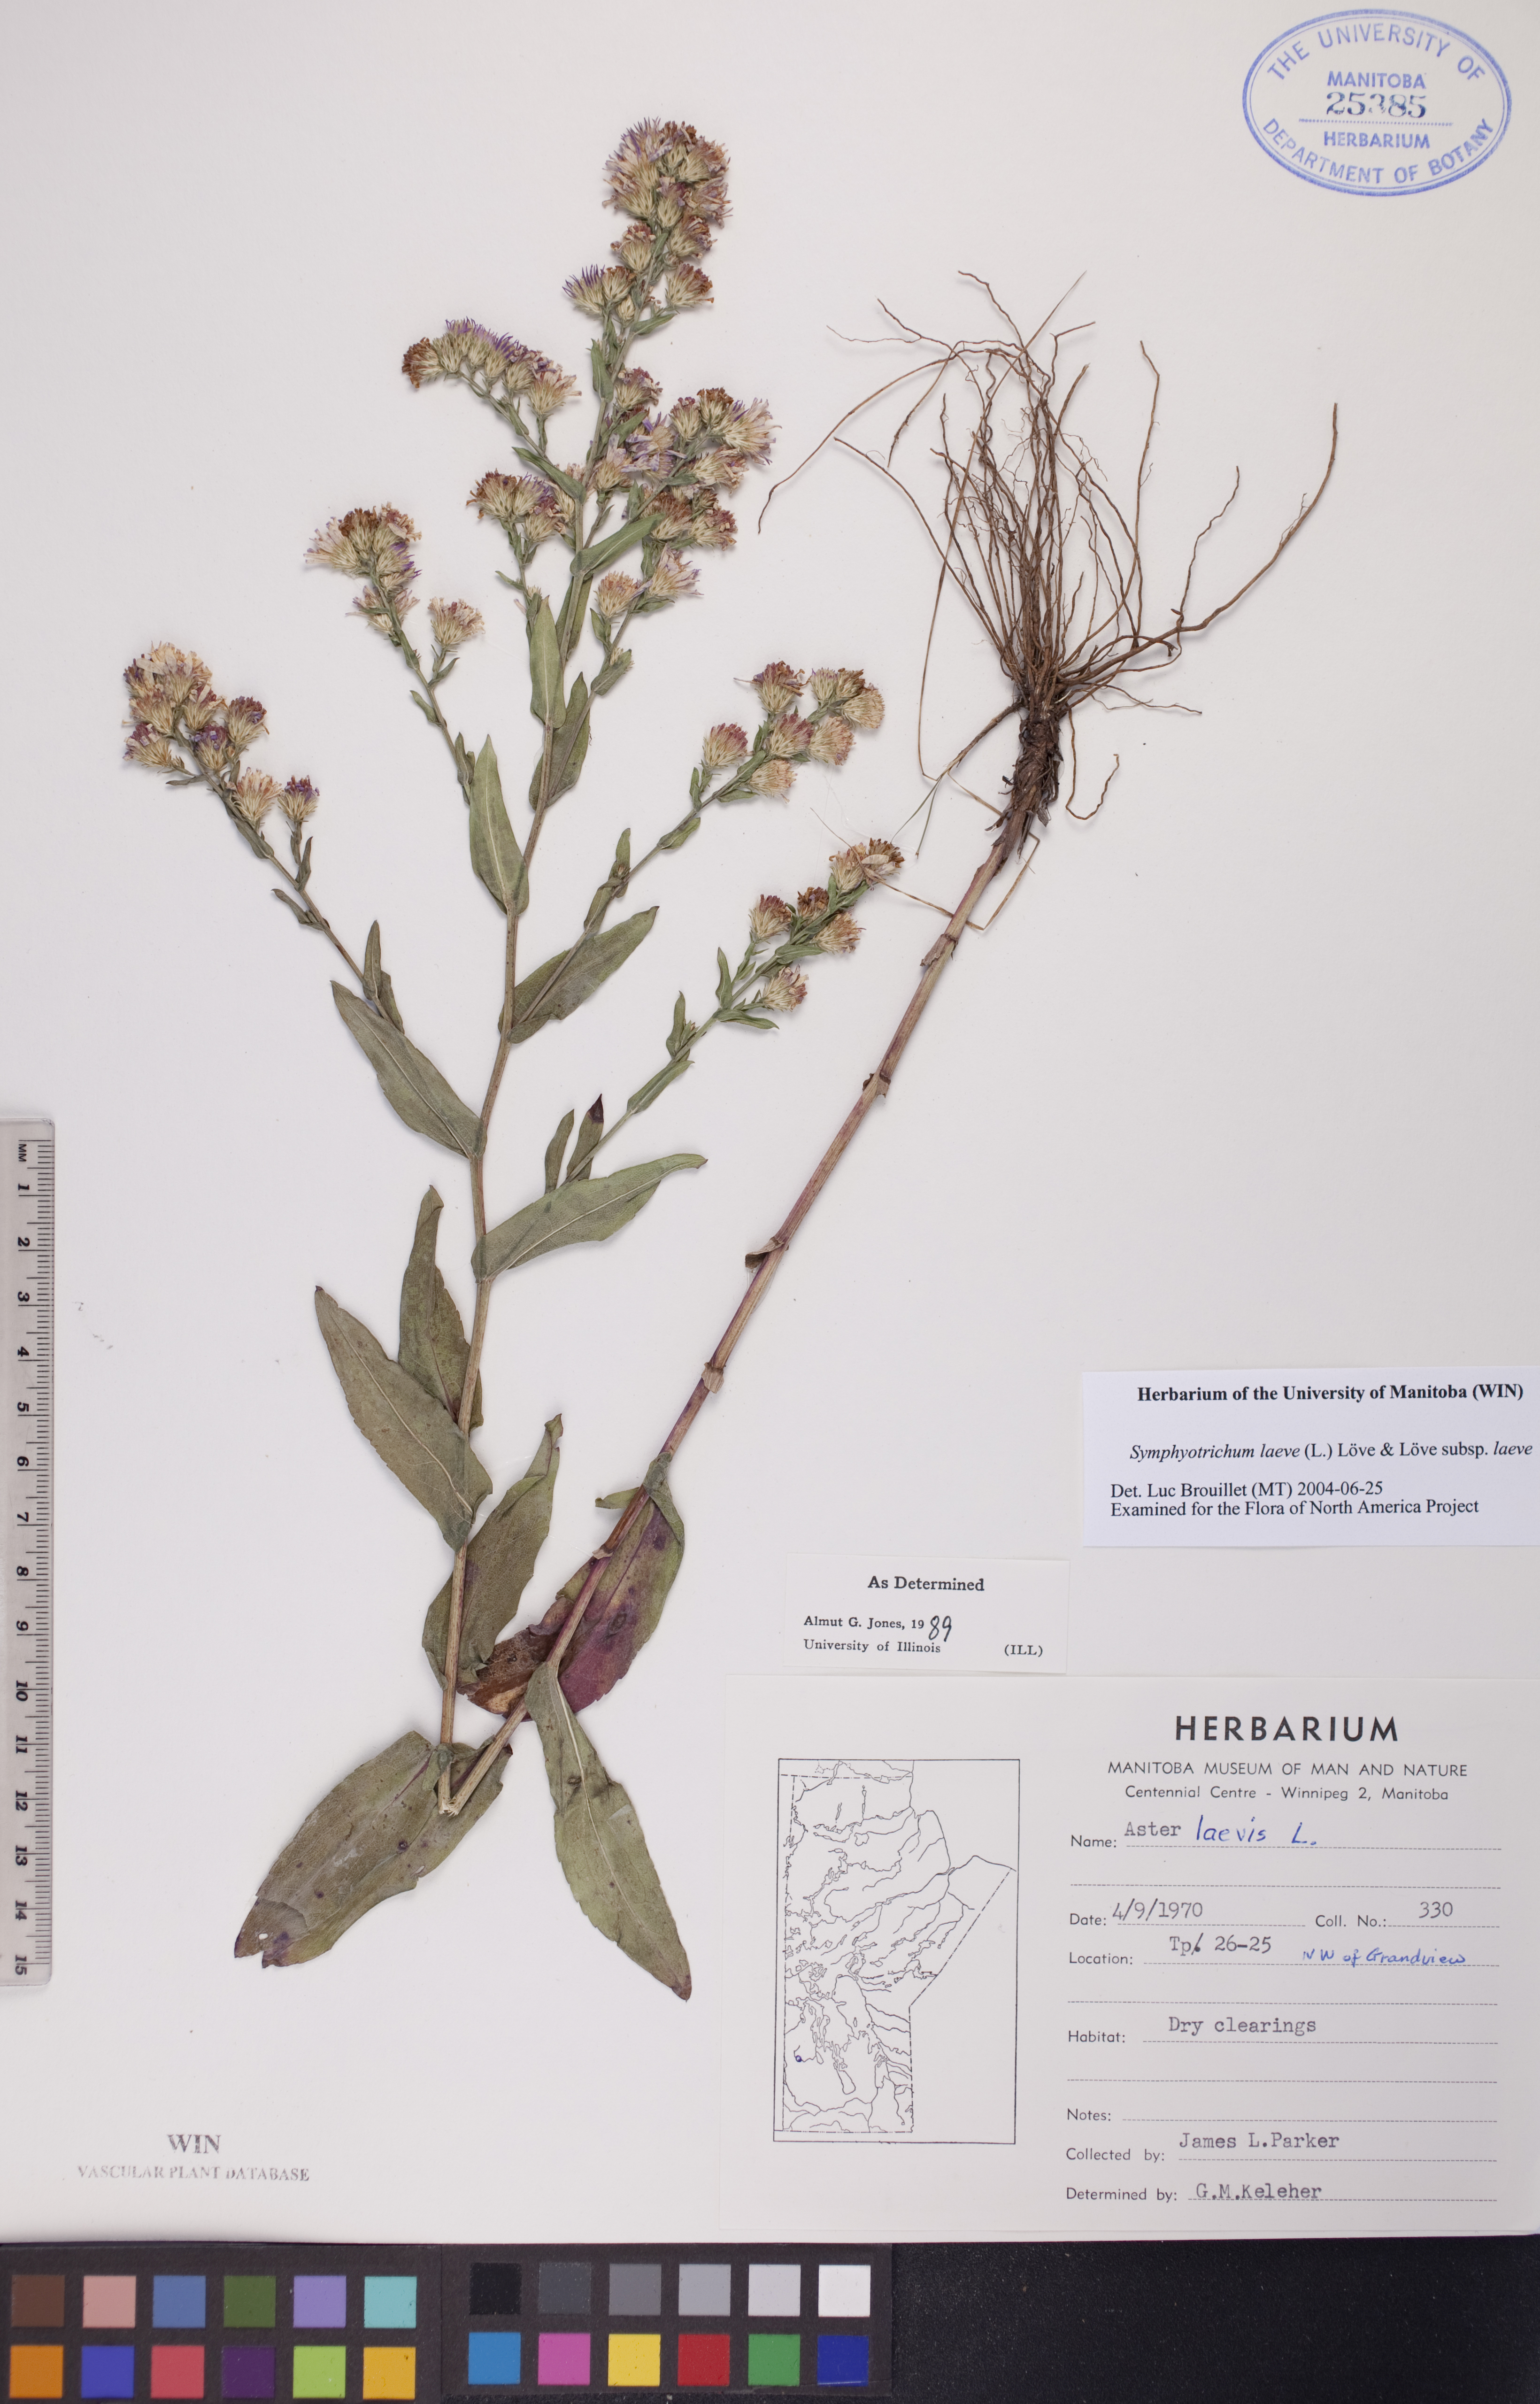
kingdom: Plantae
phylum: Tracheophyta
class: Magnoliopsida
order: Asterales
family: Asteraceae
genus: Symphyotrichum
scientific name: Symphyotrichum laeve
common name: Glaucous aster
